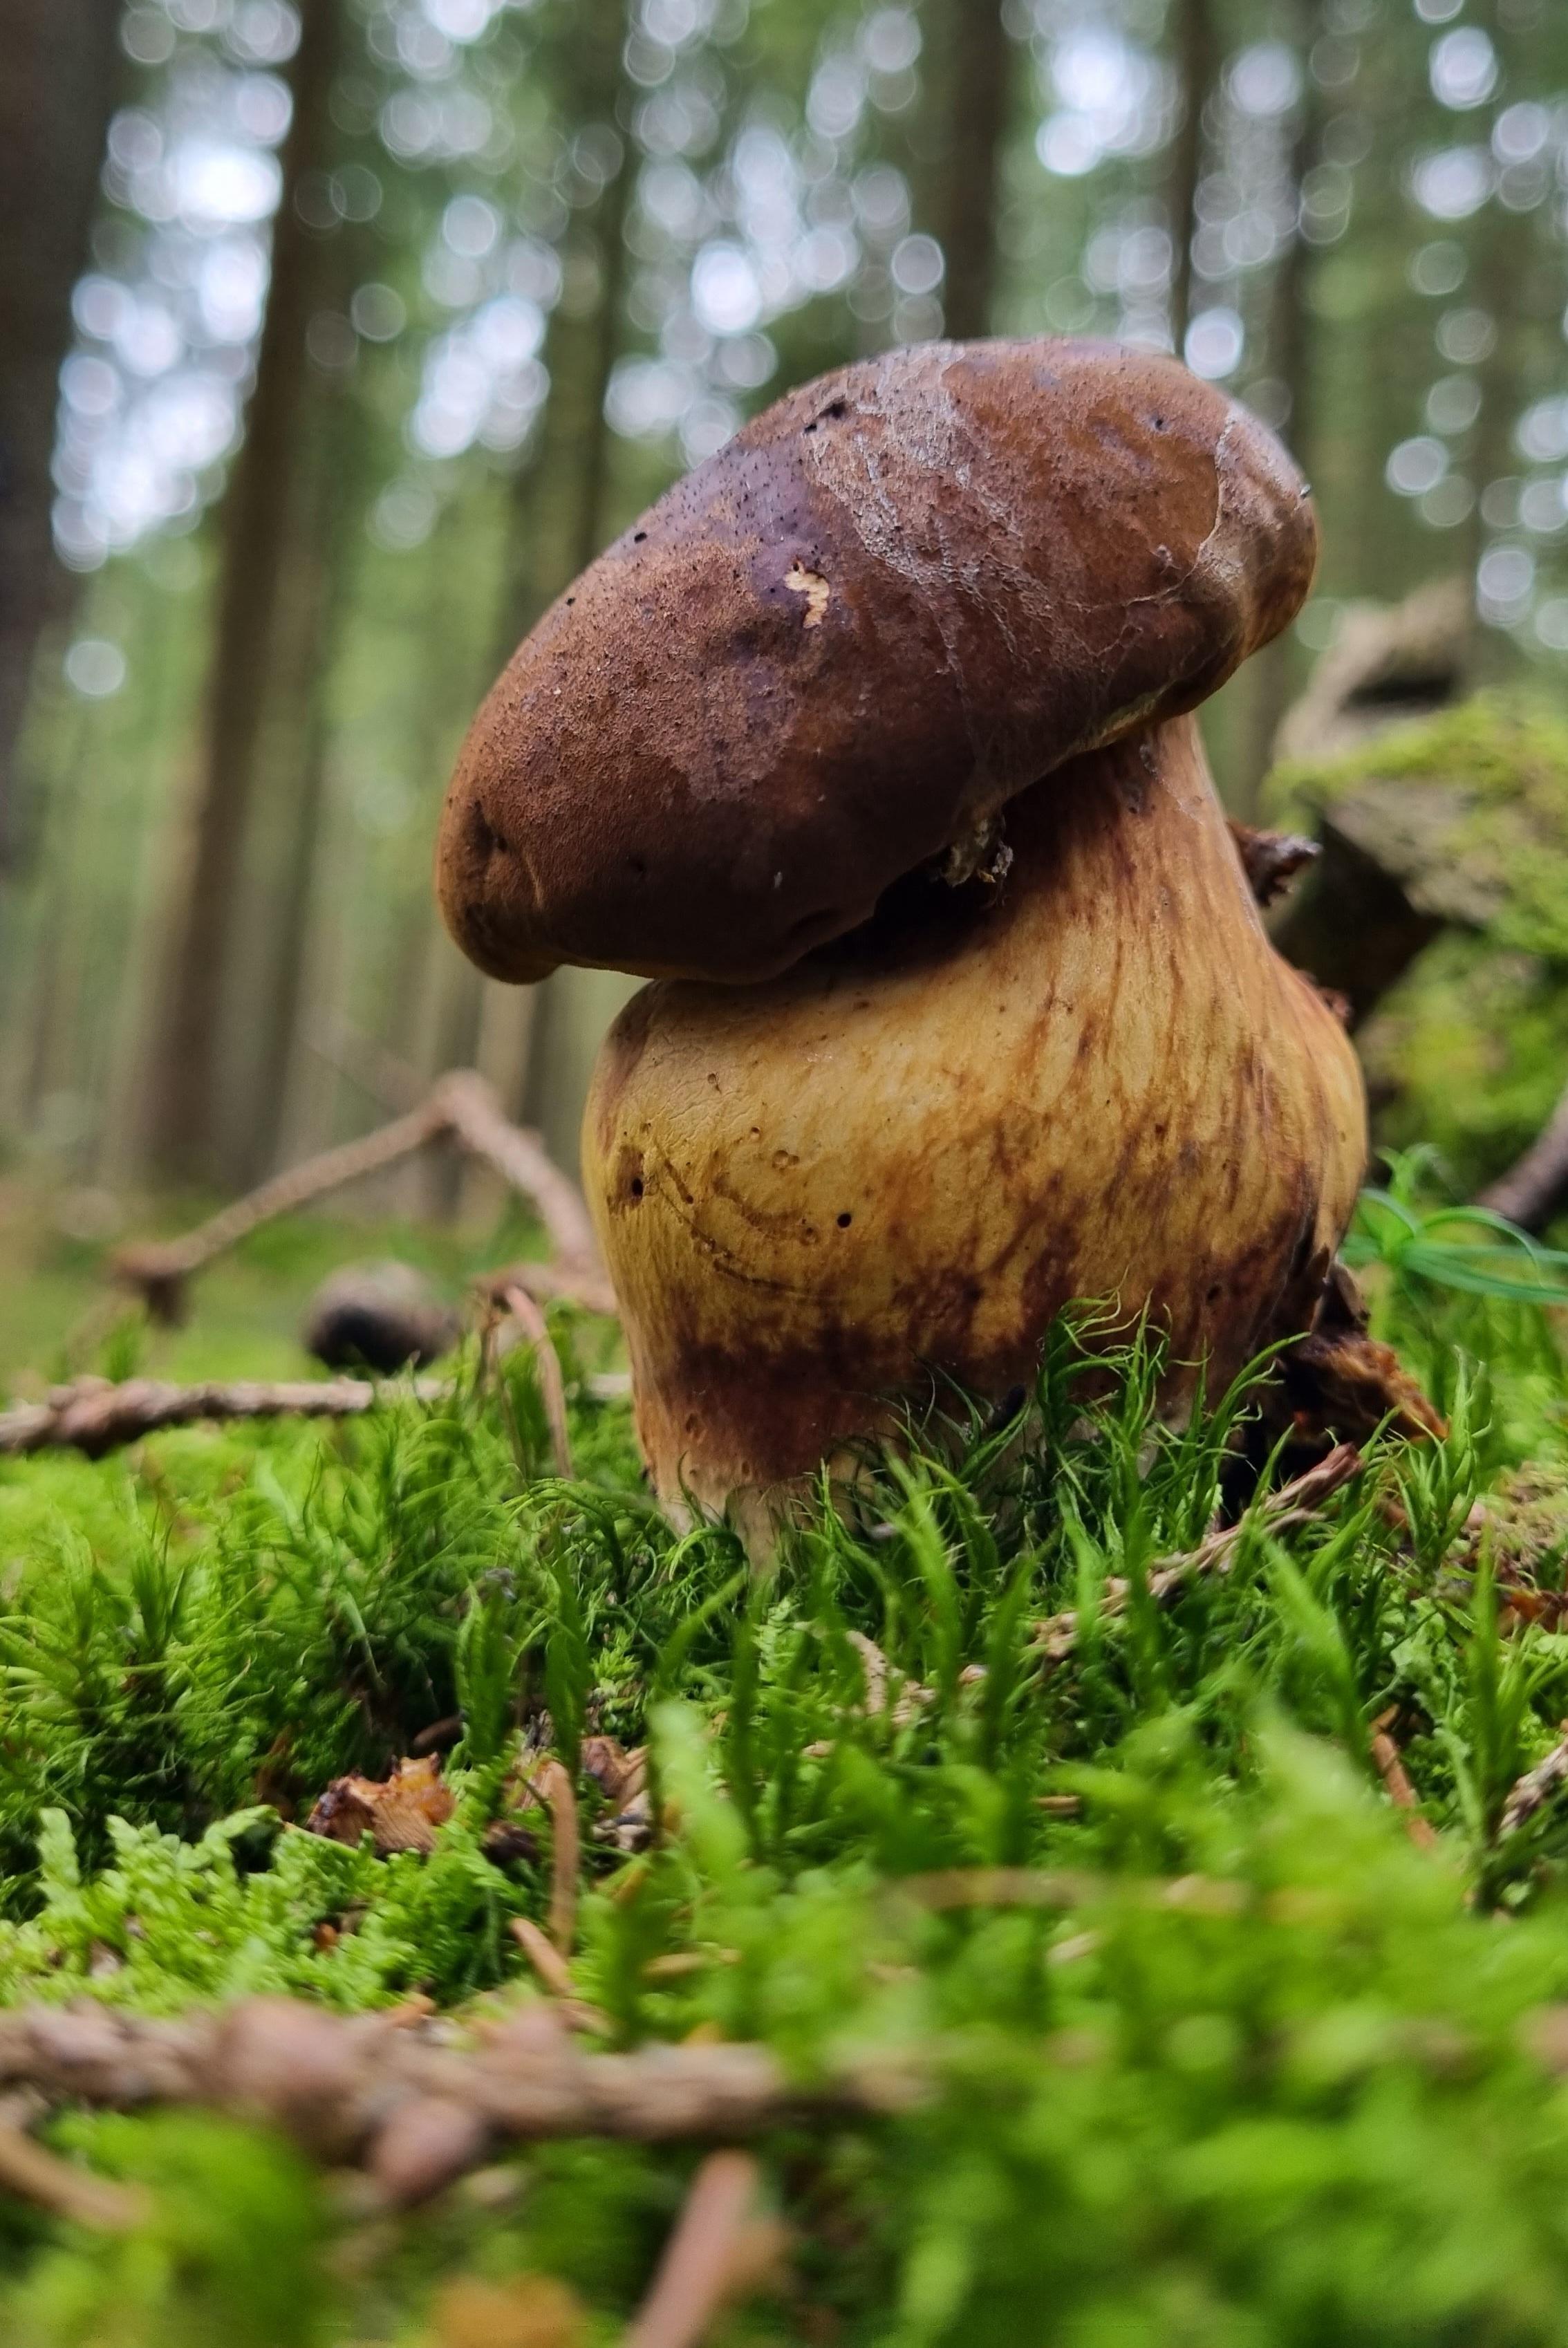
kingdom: Fungi
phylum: Basidiomycota
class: Agaricomycetes
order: Boletales
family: Boletaceae
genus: Imleria
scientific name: Imleria badia
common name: brunstokket rørhat
